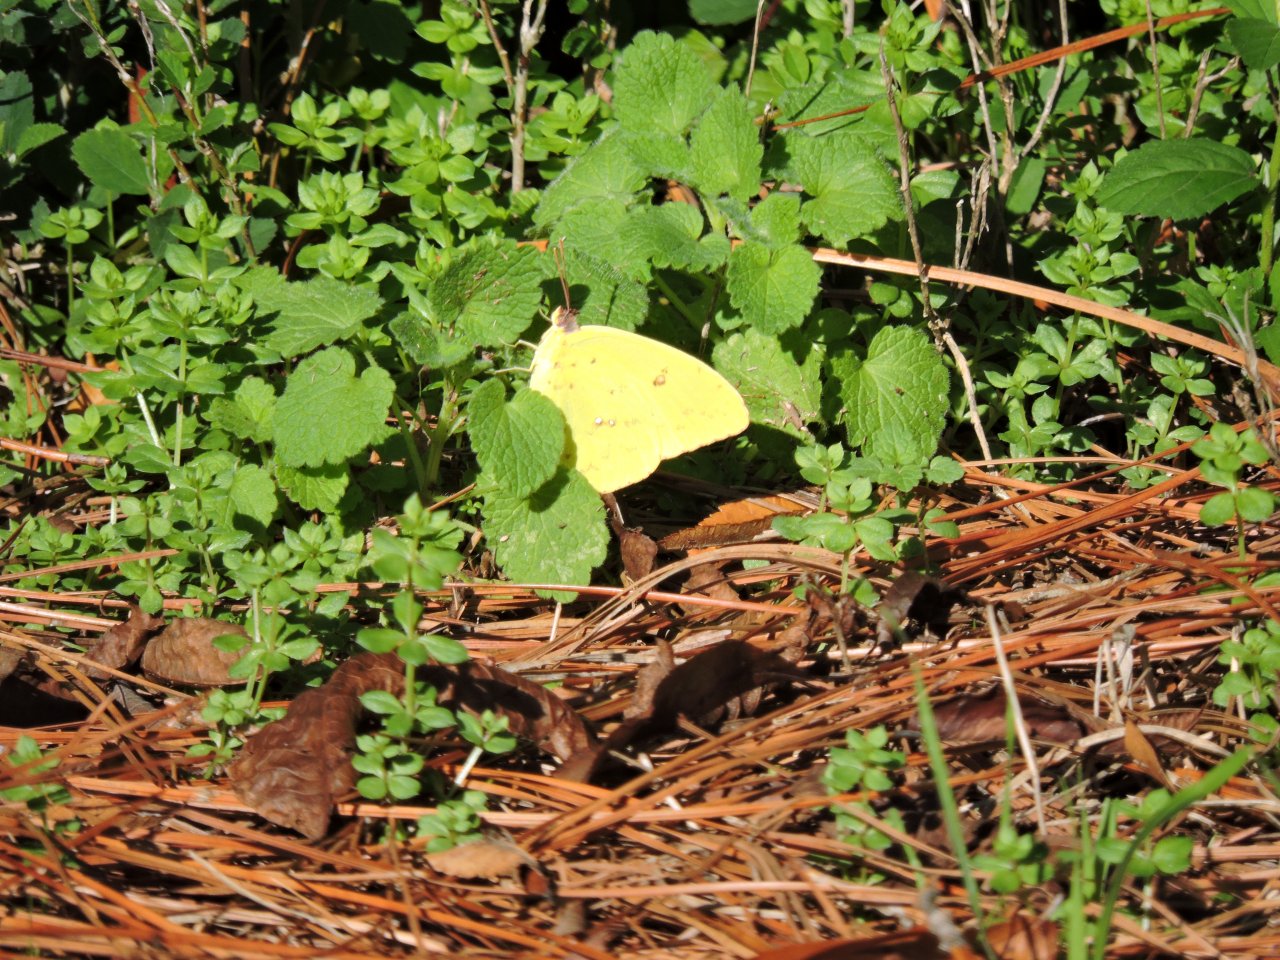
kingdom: Animalia
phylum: Arthropoda
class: Insecta
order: Lepidoptera
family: Pieridae
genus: Phoebis
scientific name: Phoebis sennae
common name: Cloudless Sulphur
